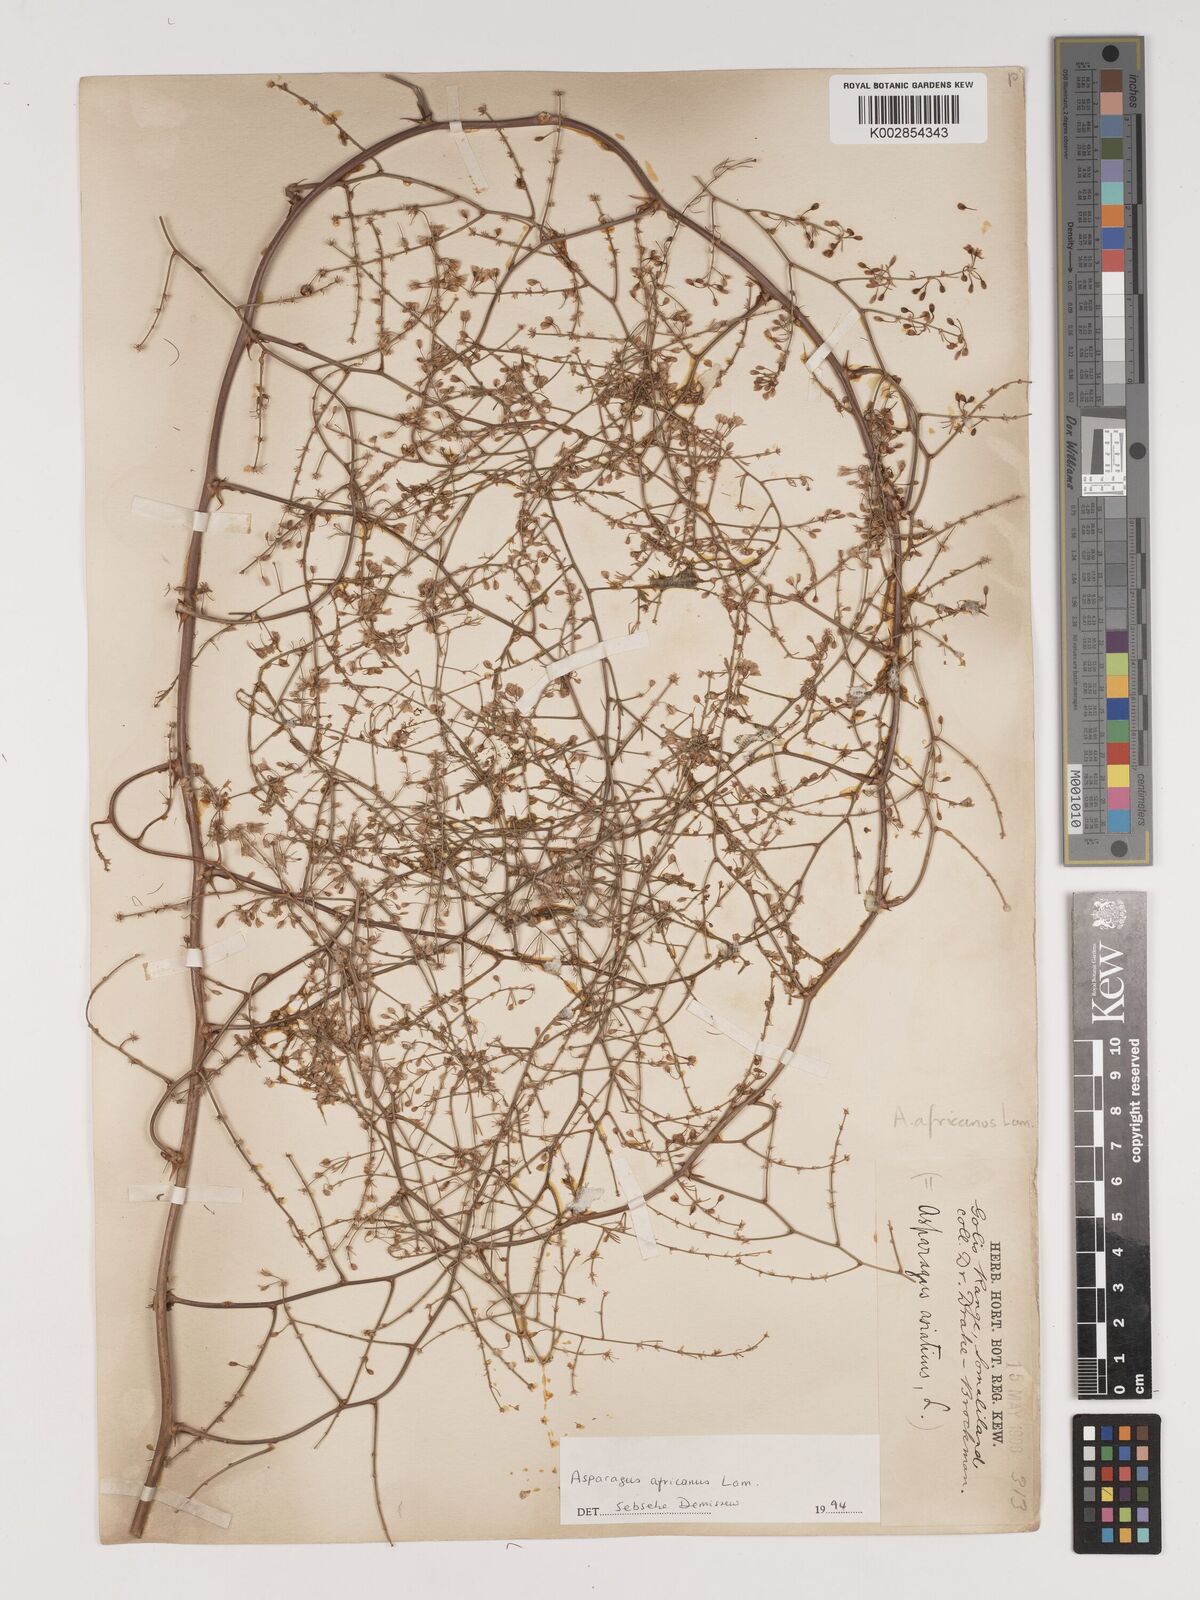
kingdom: Plantae
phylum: Tracheophyta
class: Liliopsida
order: Asparagales
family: Asparagaceae
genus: Asparagus
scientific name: Asparagus africanus
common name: Asparagus-fern
